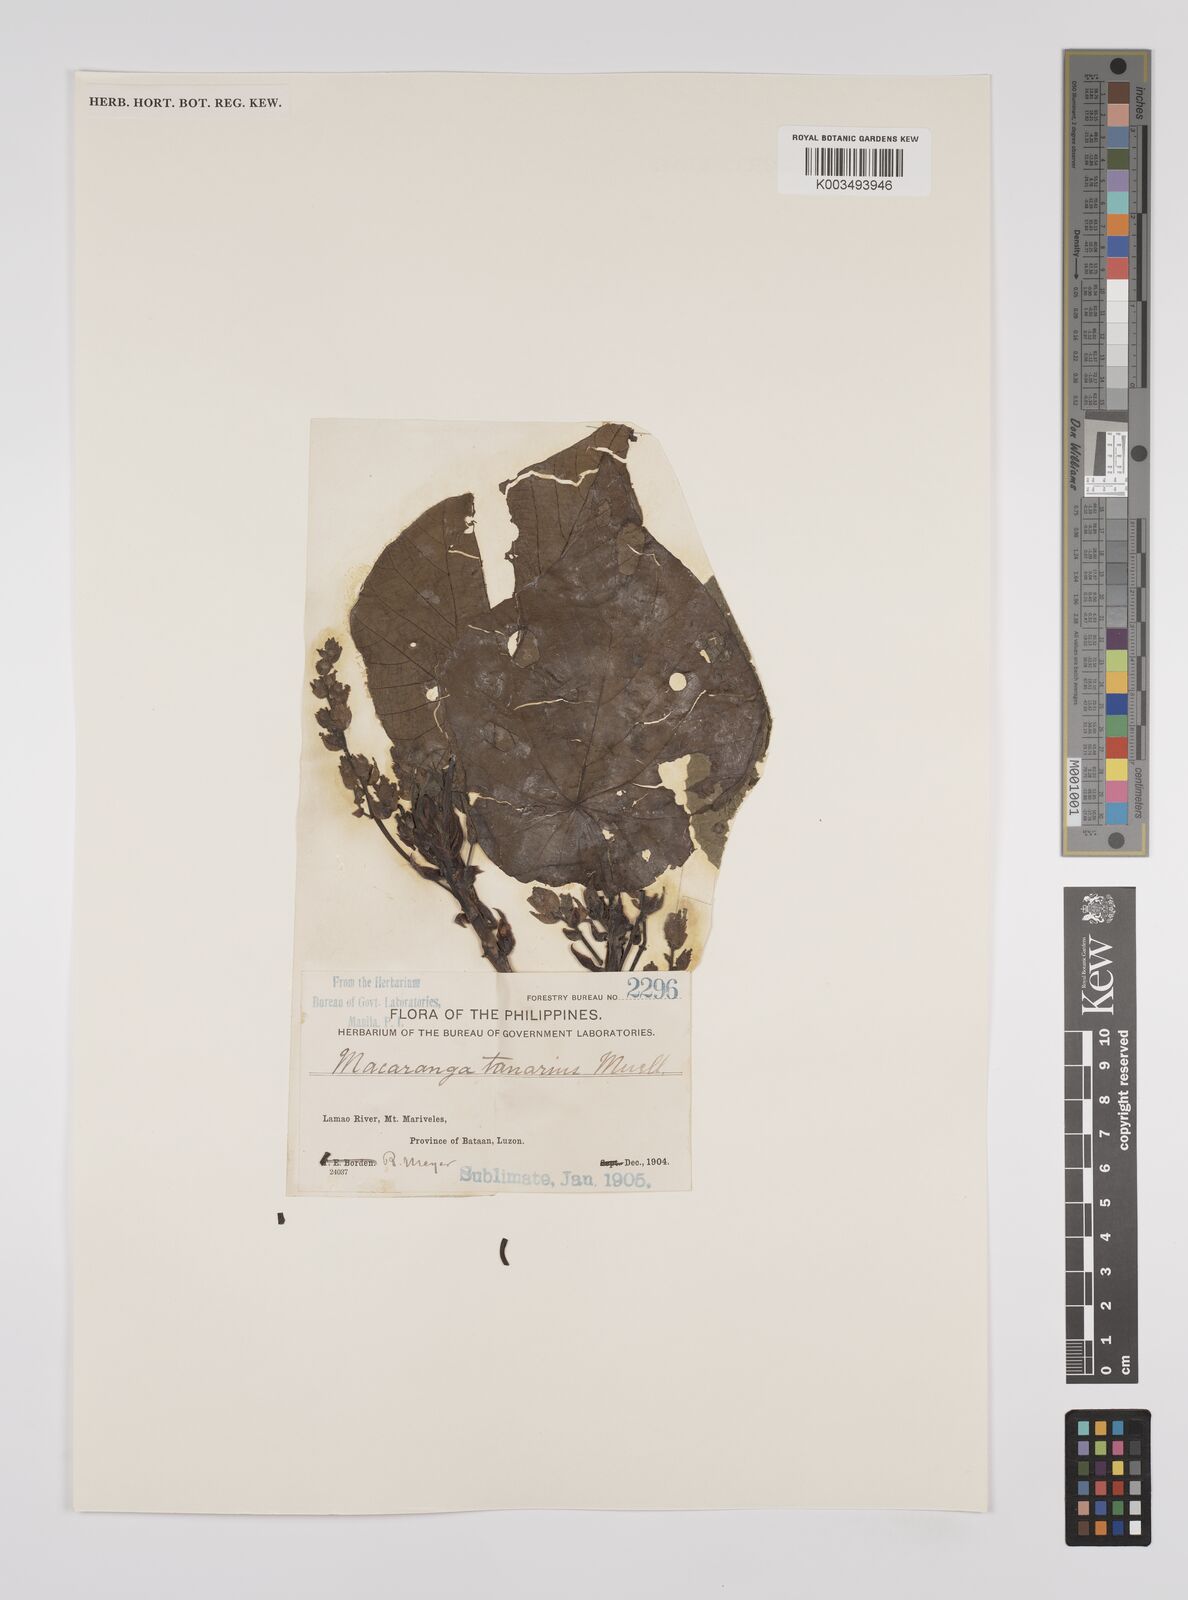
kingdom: Plantae
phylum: Tracheophyta
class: Magnoliopsida
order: Malpighiales
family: Euphorbiaceae
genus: Macaranga
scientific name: Macaranga tanarius
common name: Parasol leaf tree
